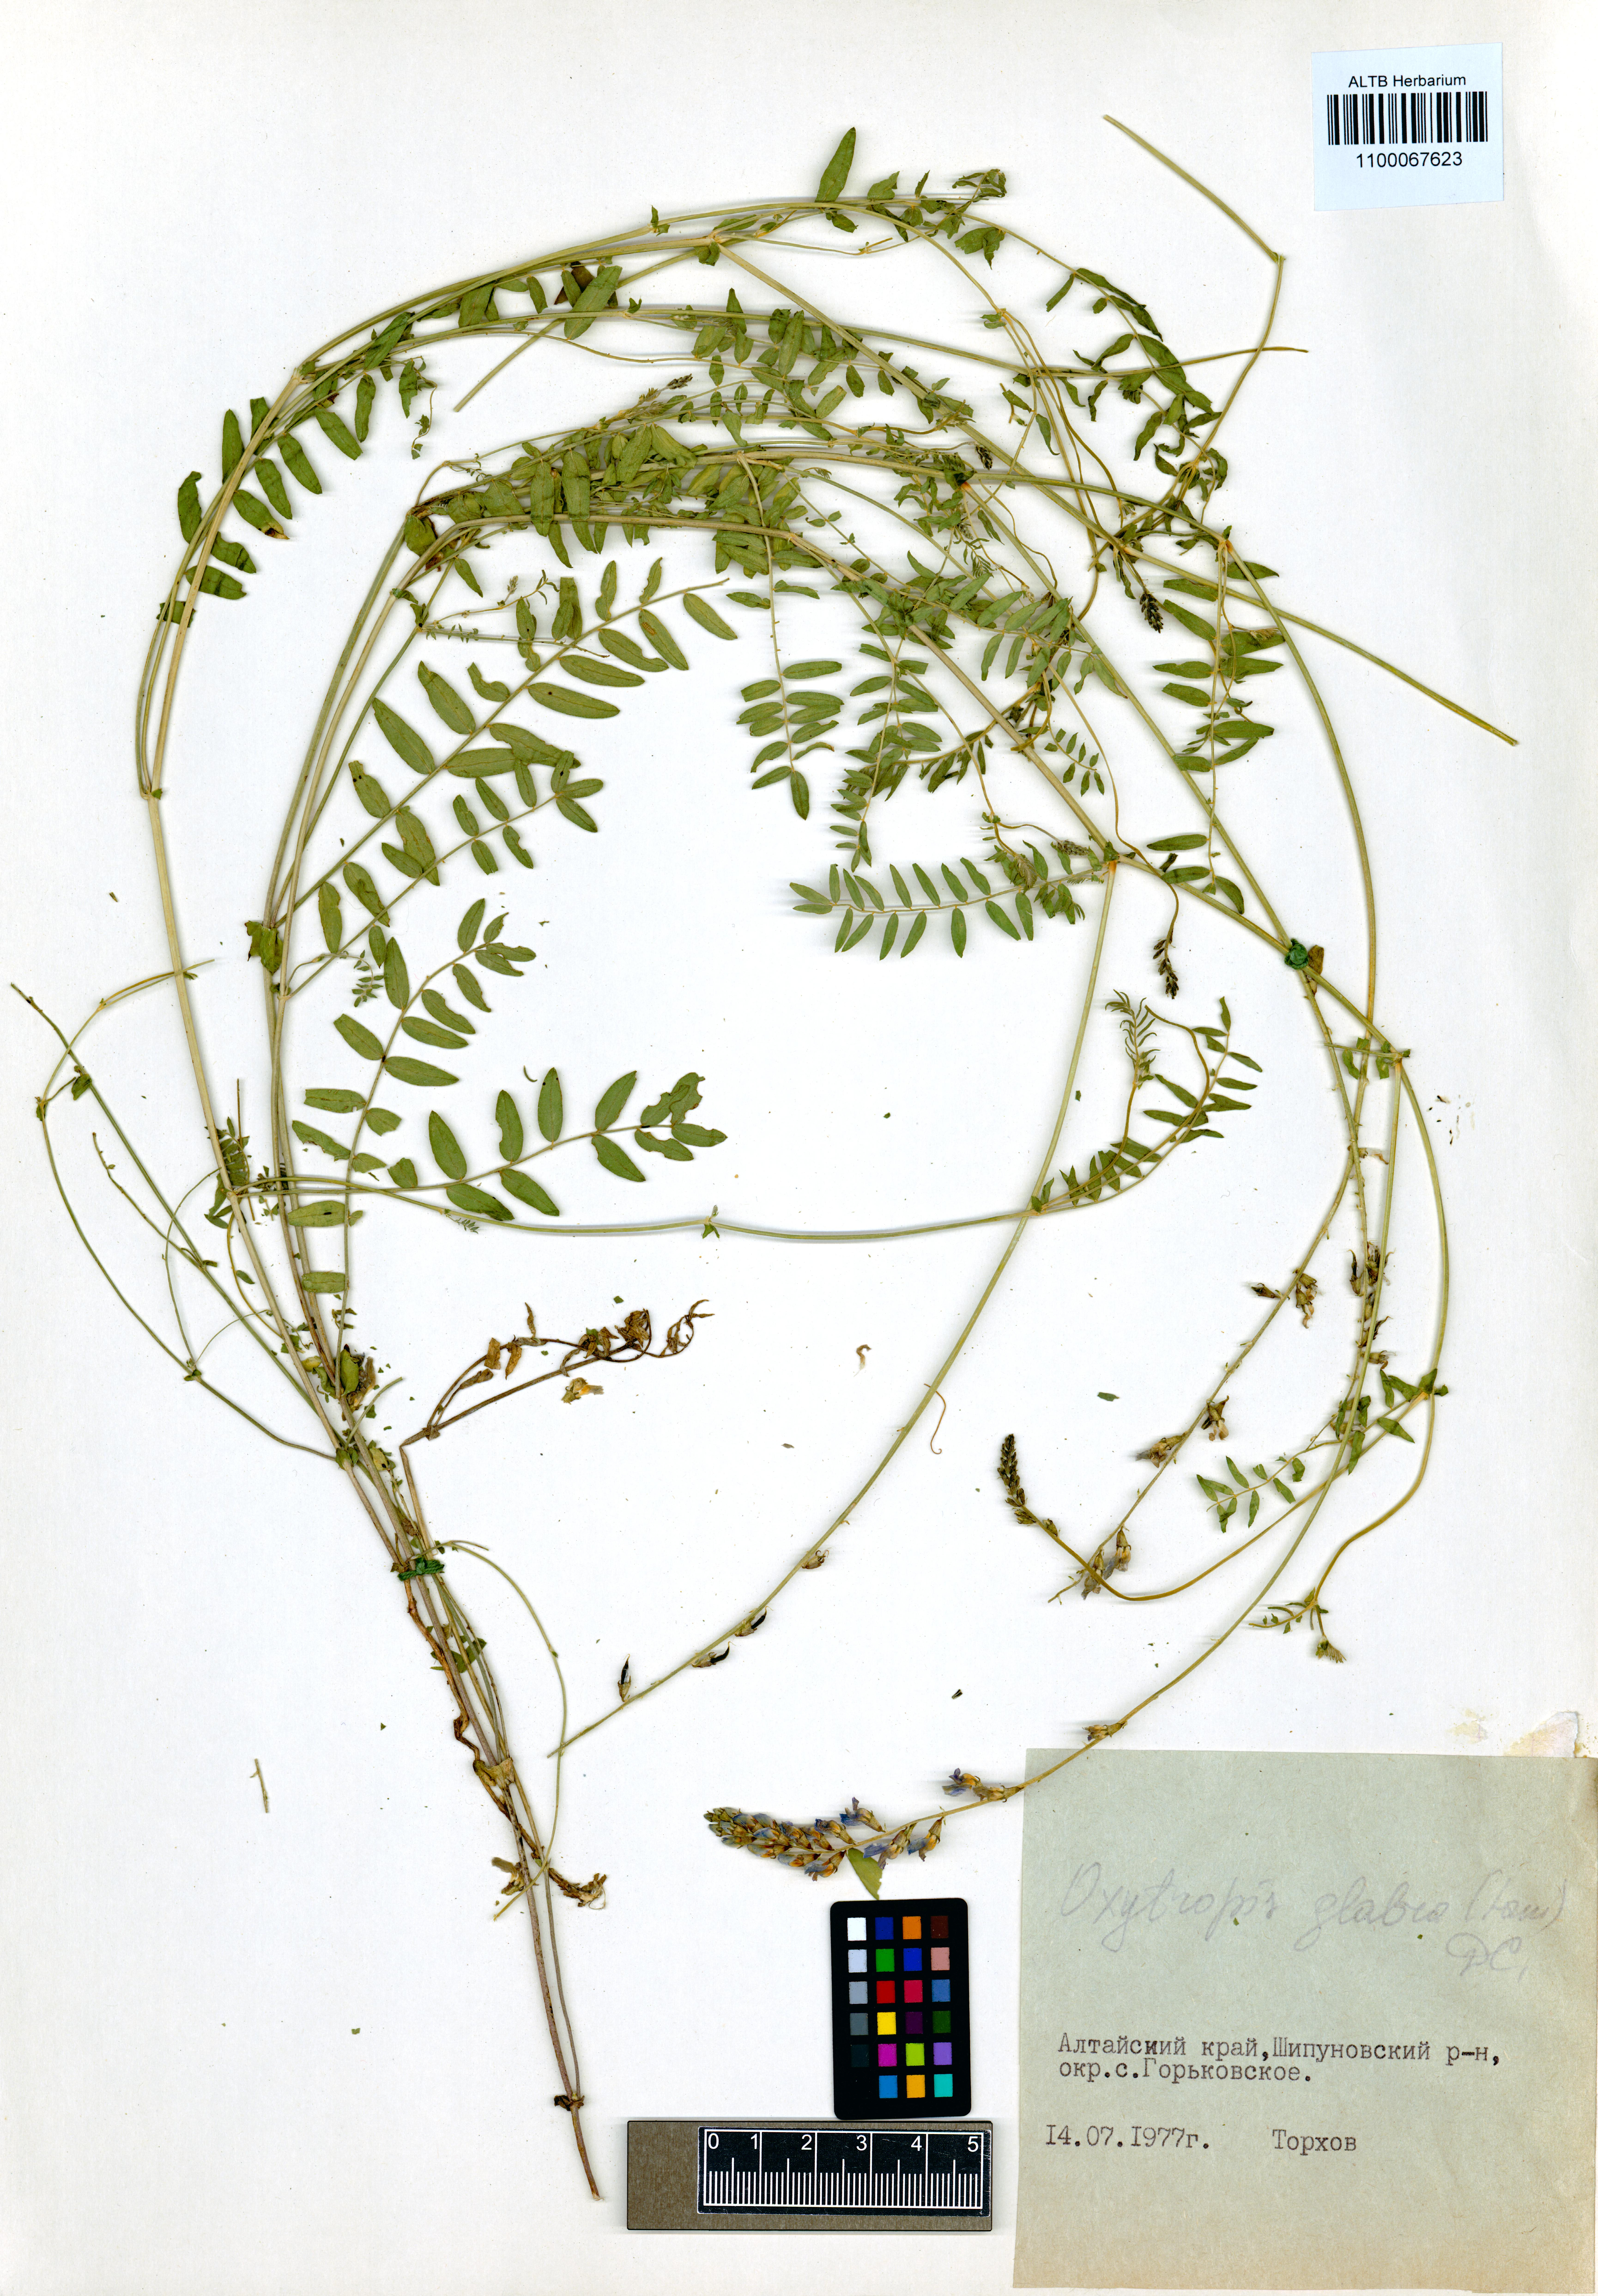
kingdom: Plantae
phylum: Tracheophyta
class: Magnoliopsida
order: Fabales
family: Fabaceae
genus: Oxytropis
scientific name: Oxytropis glabra
